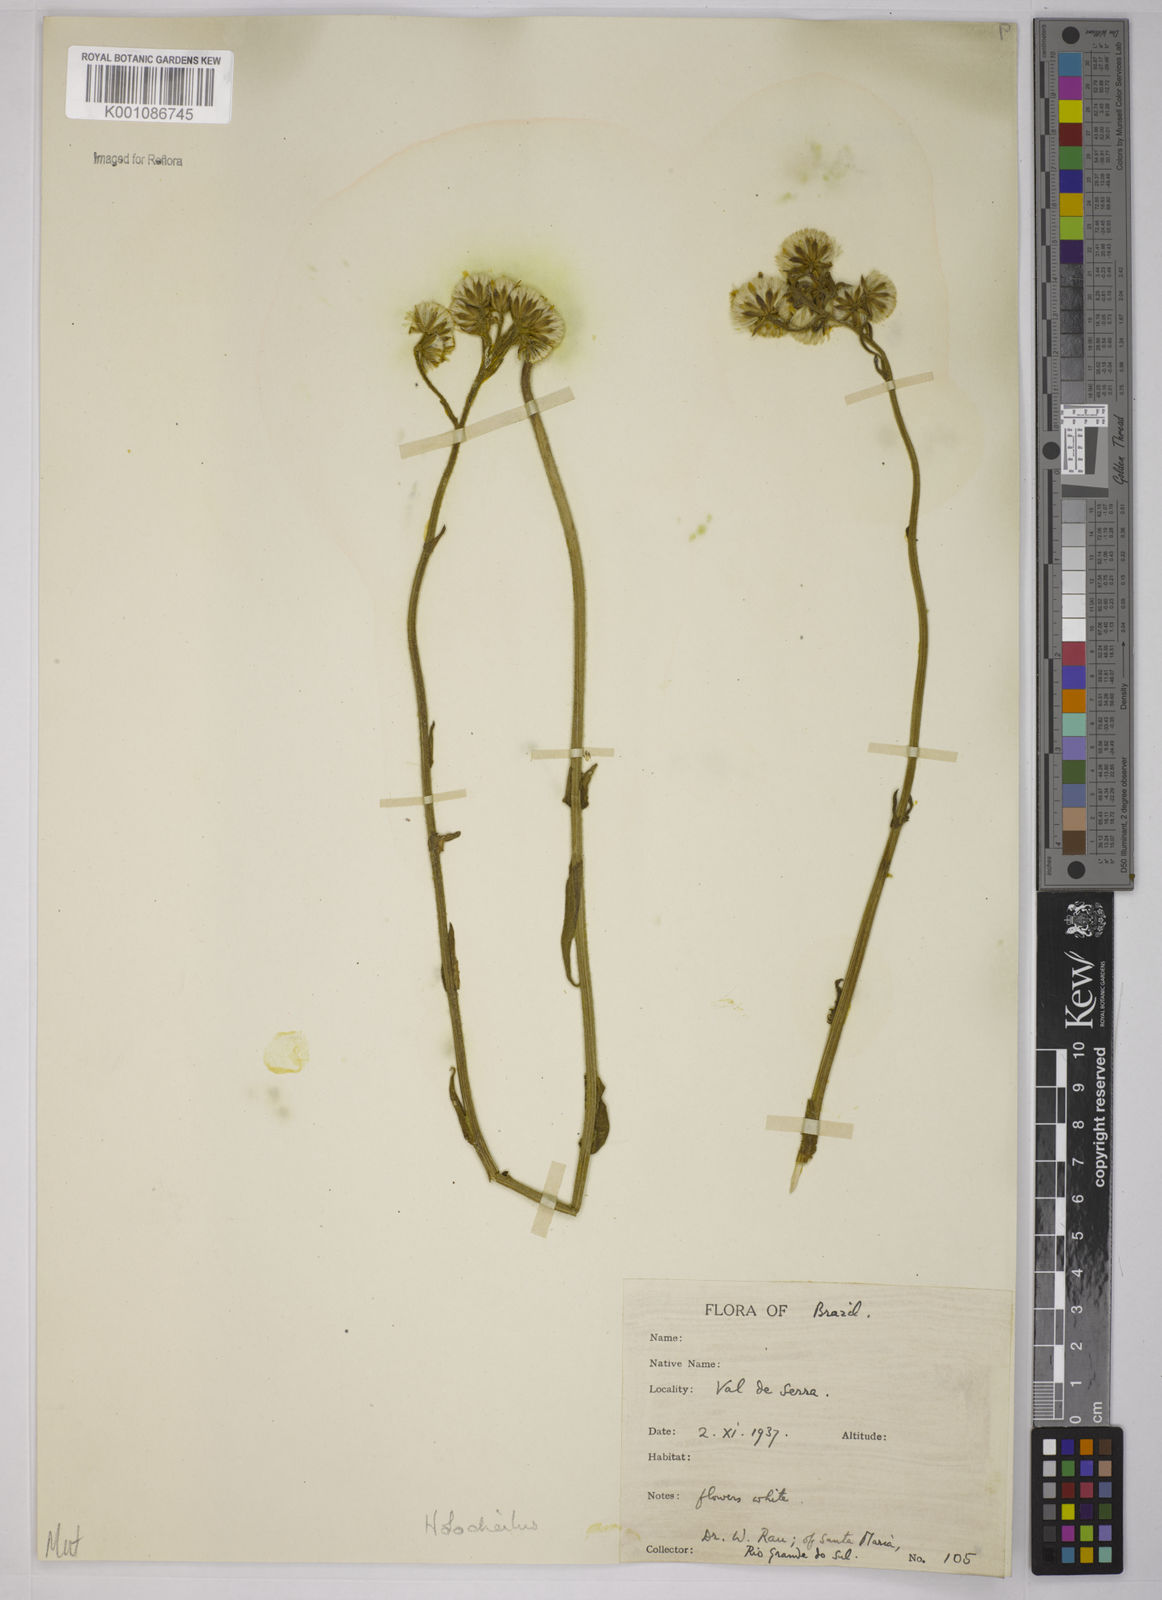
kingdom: Plantae
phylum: Tracheophyta
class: Magnoliopsida
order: Asterales
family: Asteraceae
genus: Holocheilus
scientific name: Holocheilus brasiliensis
